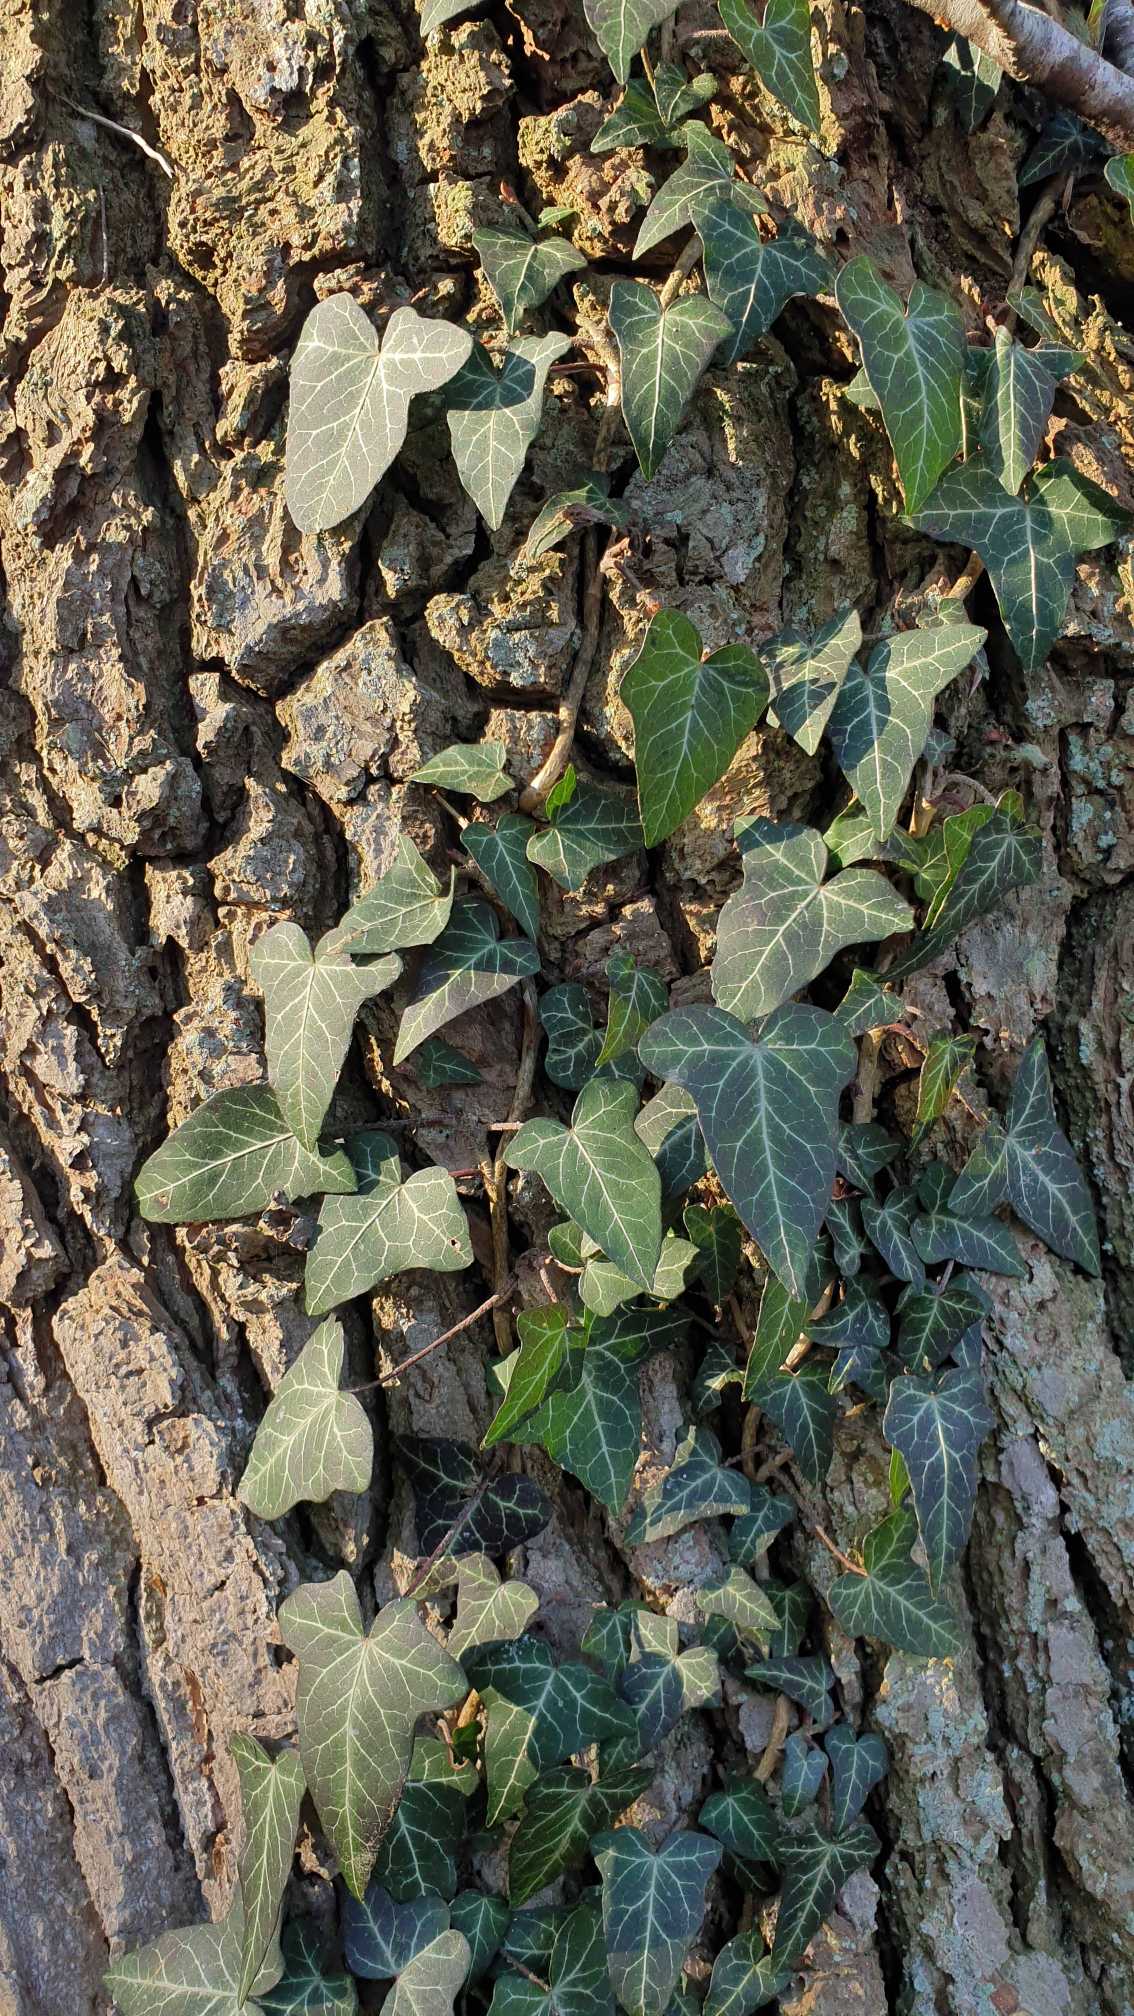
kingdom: Plantae
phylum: Tracheophyta
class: Magnoliopsida
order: Apiales
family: Araliaceae
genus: Hedera
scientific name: Hedera helix
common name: Vedbend
